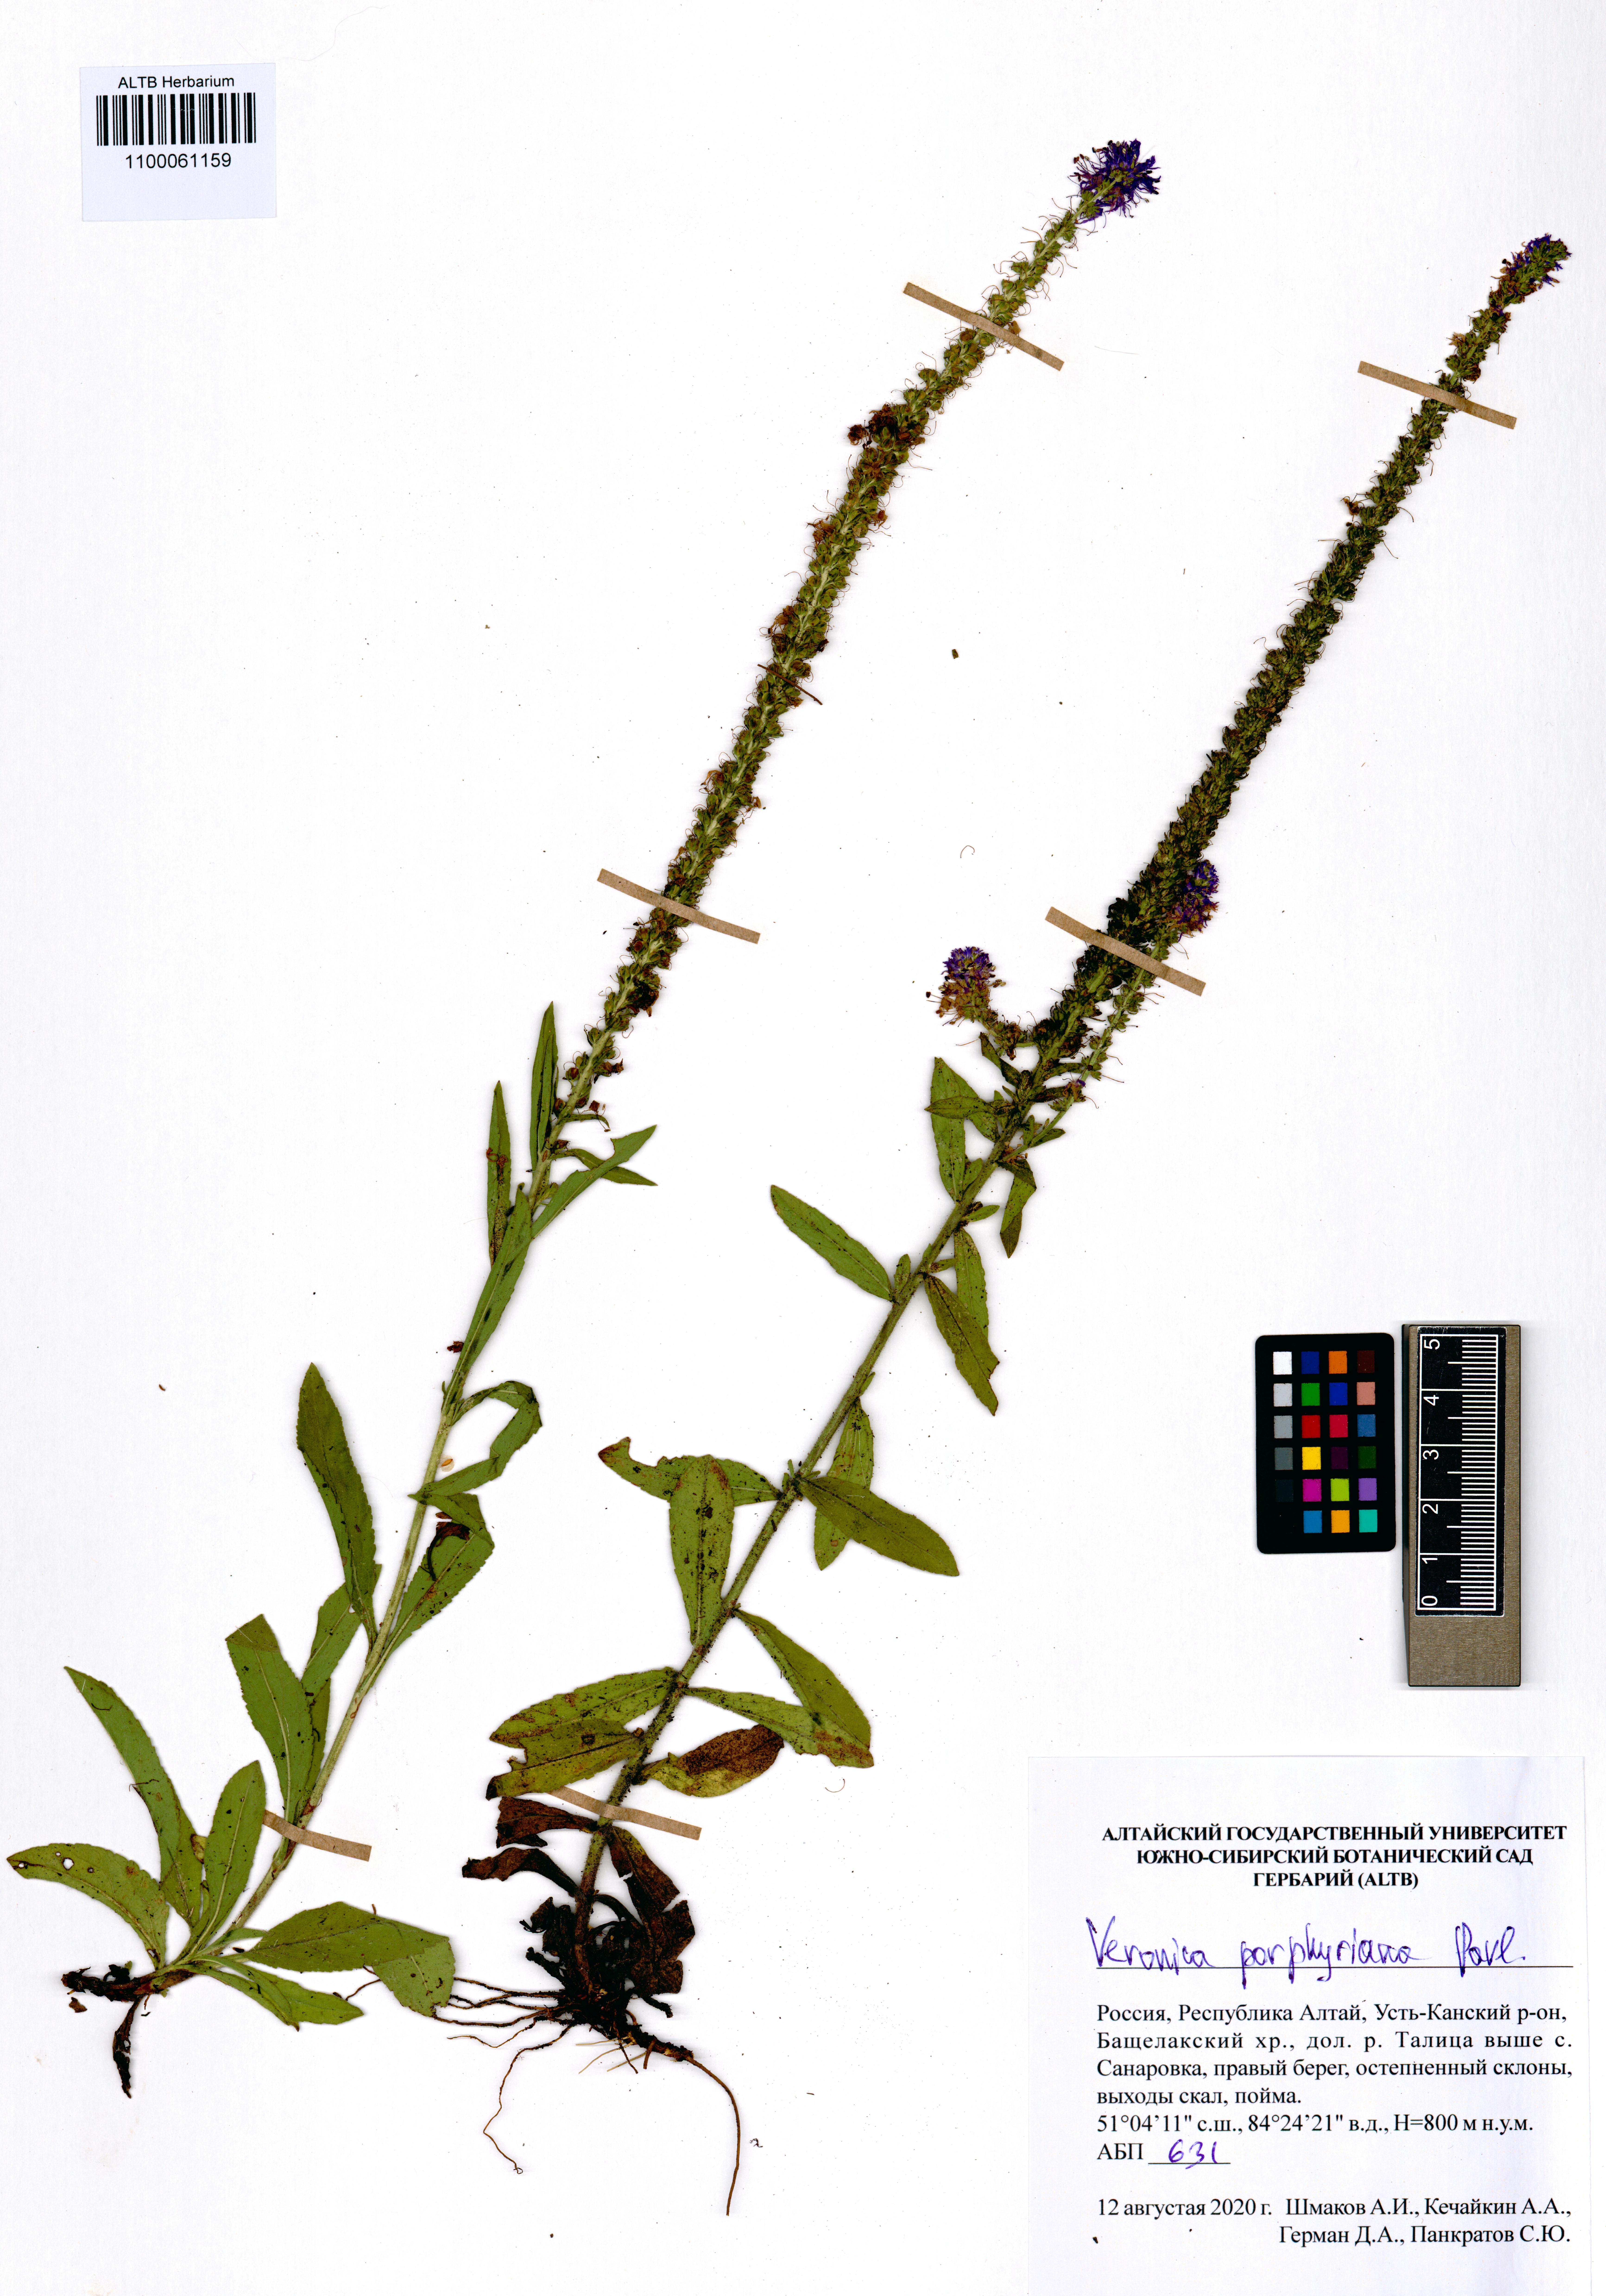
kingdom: Plantae
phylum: Tracheophyta
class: Magnoliopsida
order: Lamiales
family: Plantaginaceae
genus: Veronica
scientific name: Veronica porphyriana
